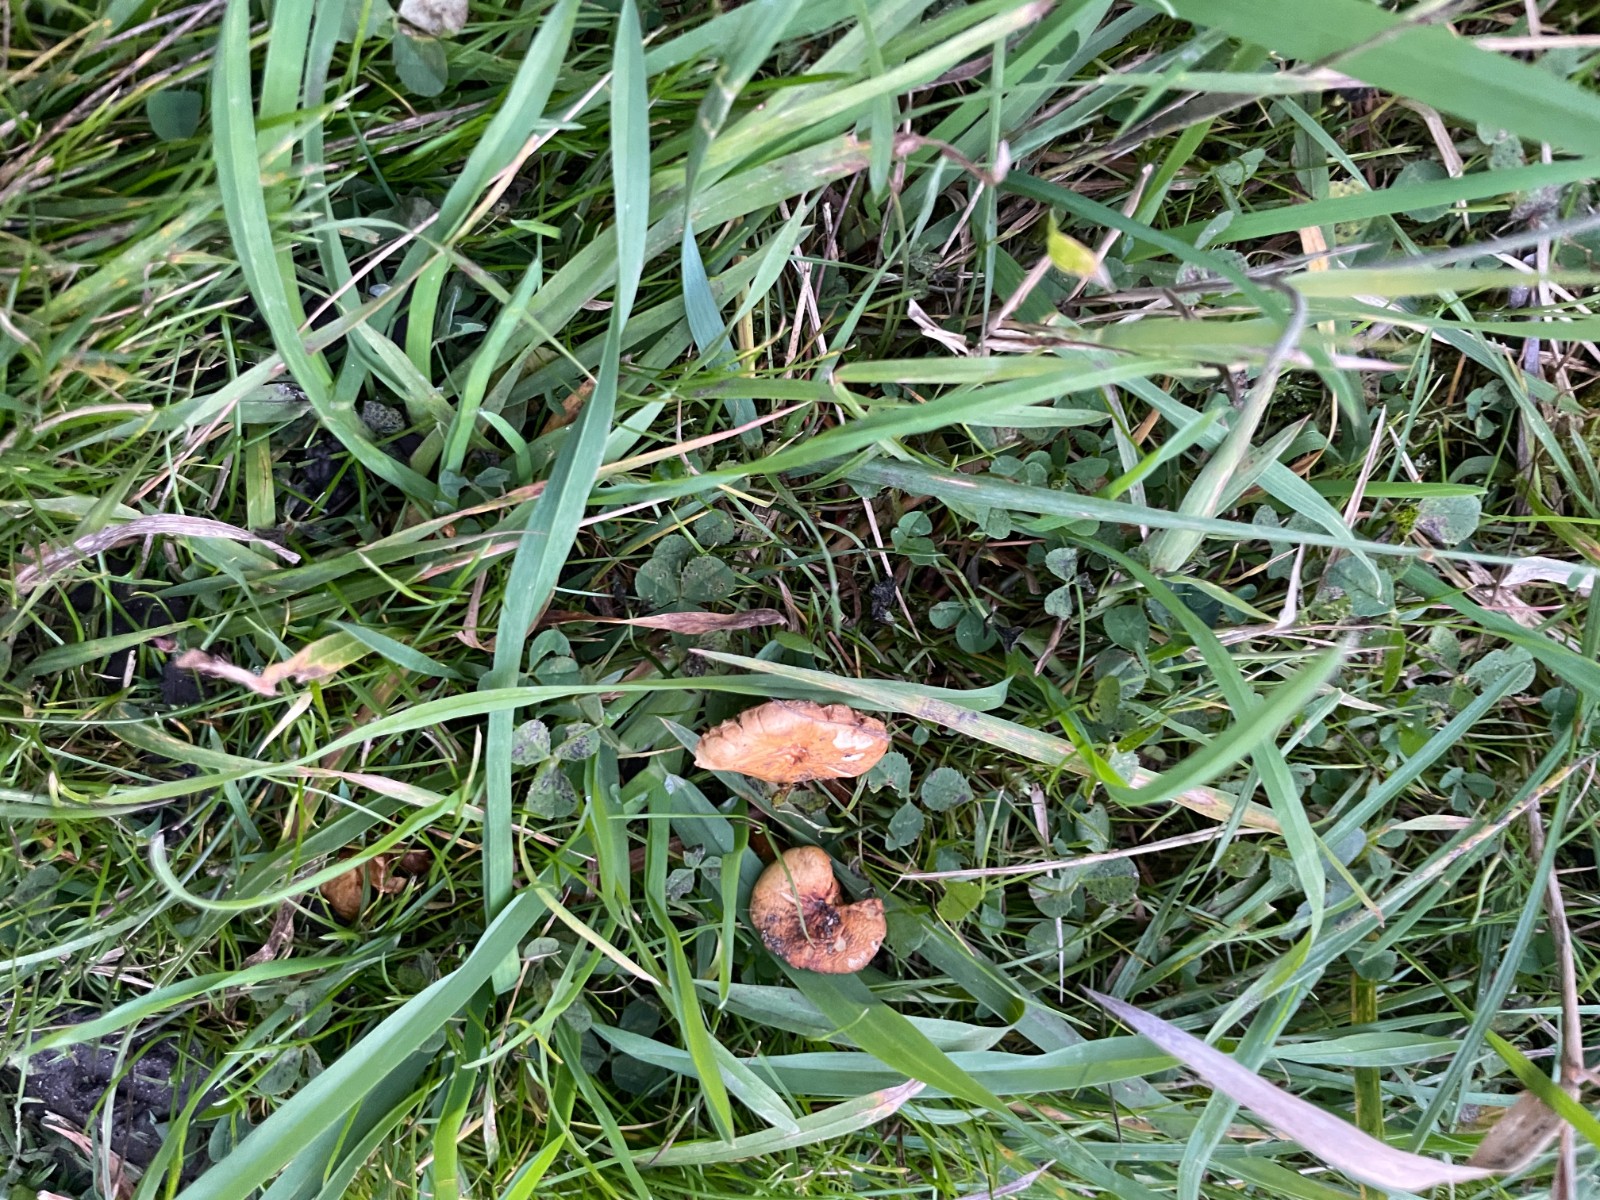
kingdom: Fungi
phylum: Basidiomycota
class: Agaricomycetes
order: Agaricales
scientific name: Agaricales
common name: champignonordenen
